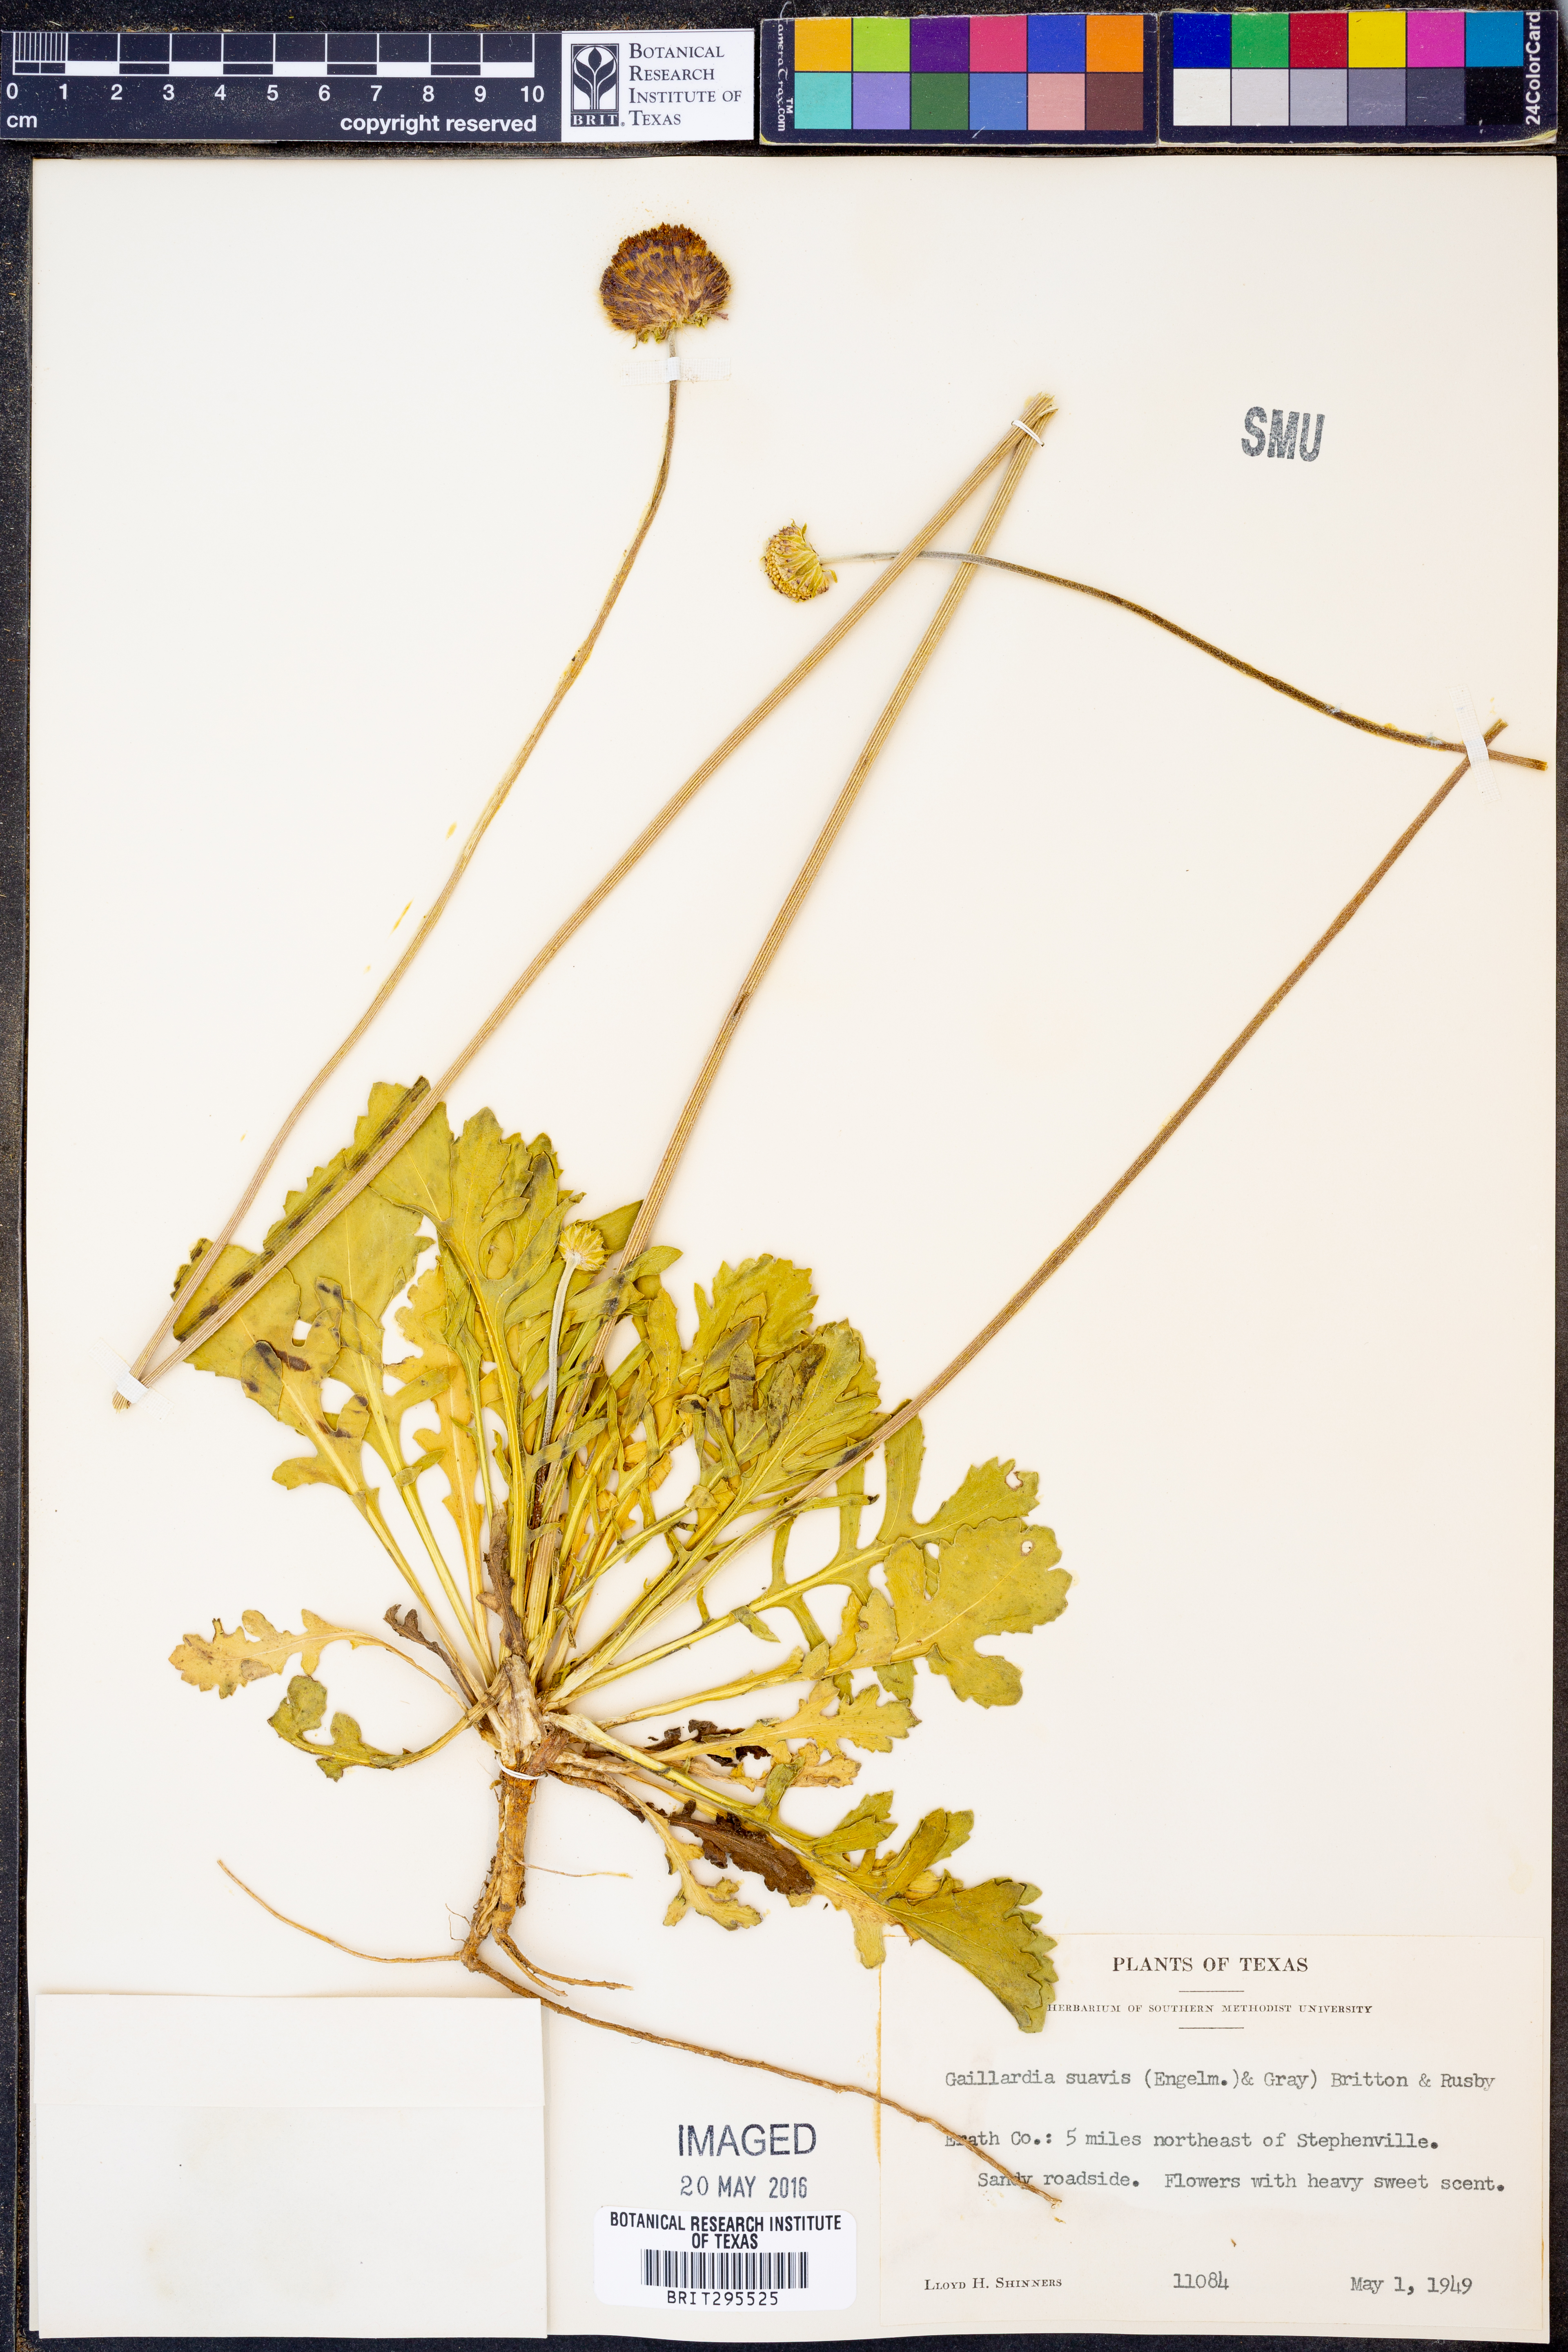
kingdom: Plantae
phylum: Tracheophyta
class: Magnoliopsida
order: Asterales
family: Asteraceae
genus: Gaillardia
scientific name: Gaillardia suavis
